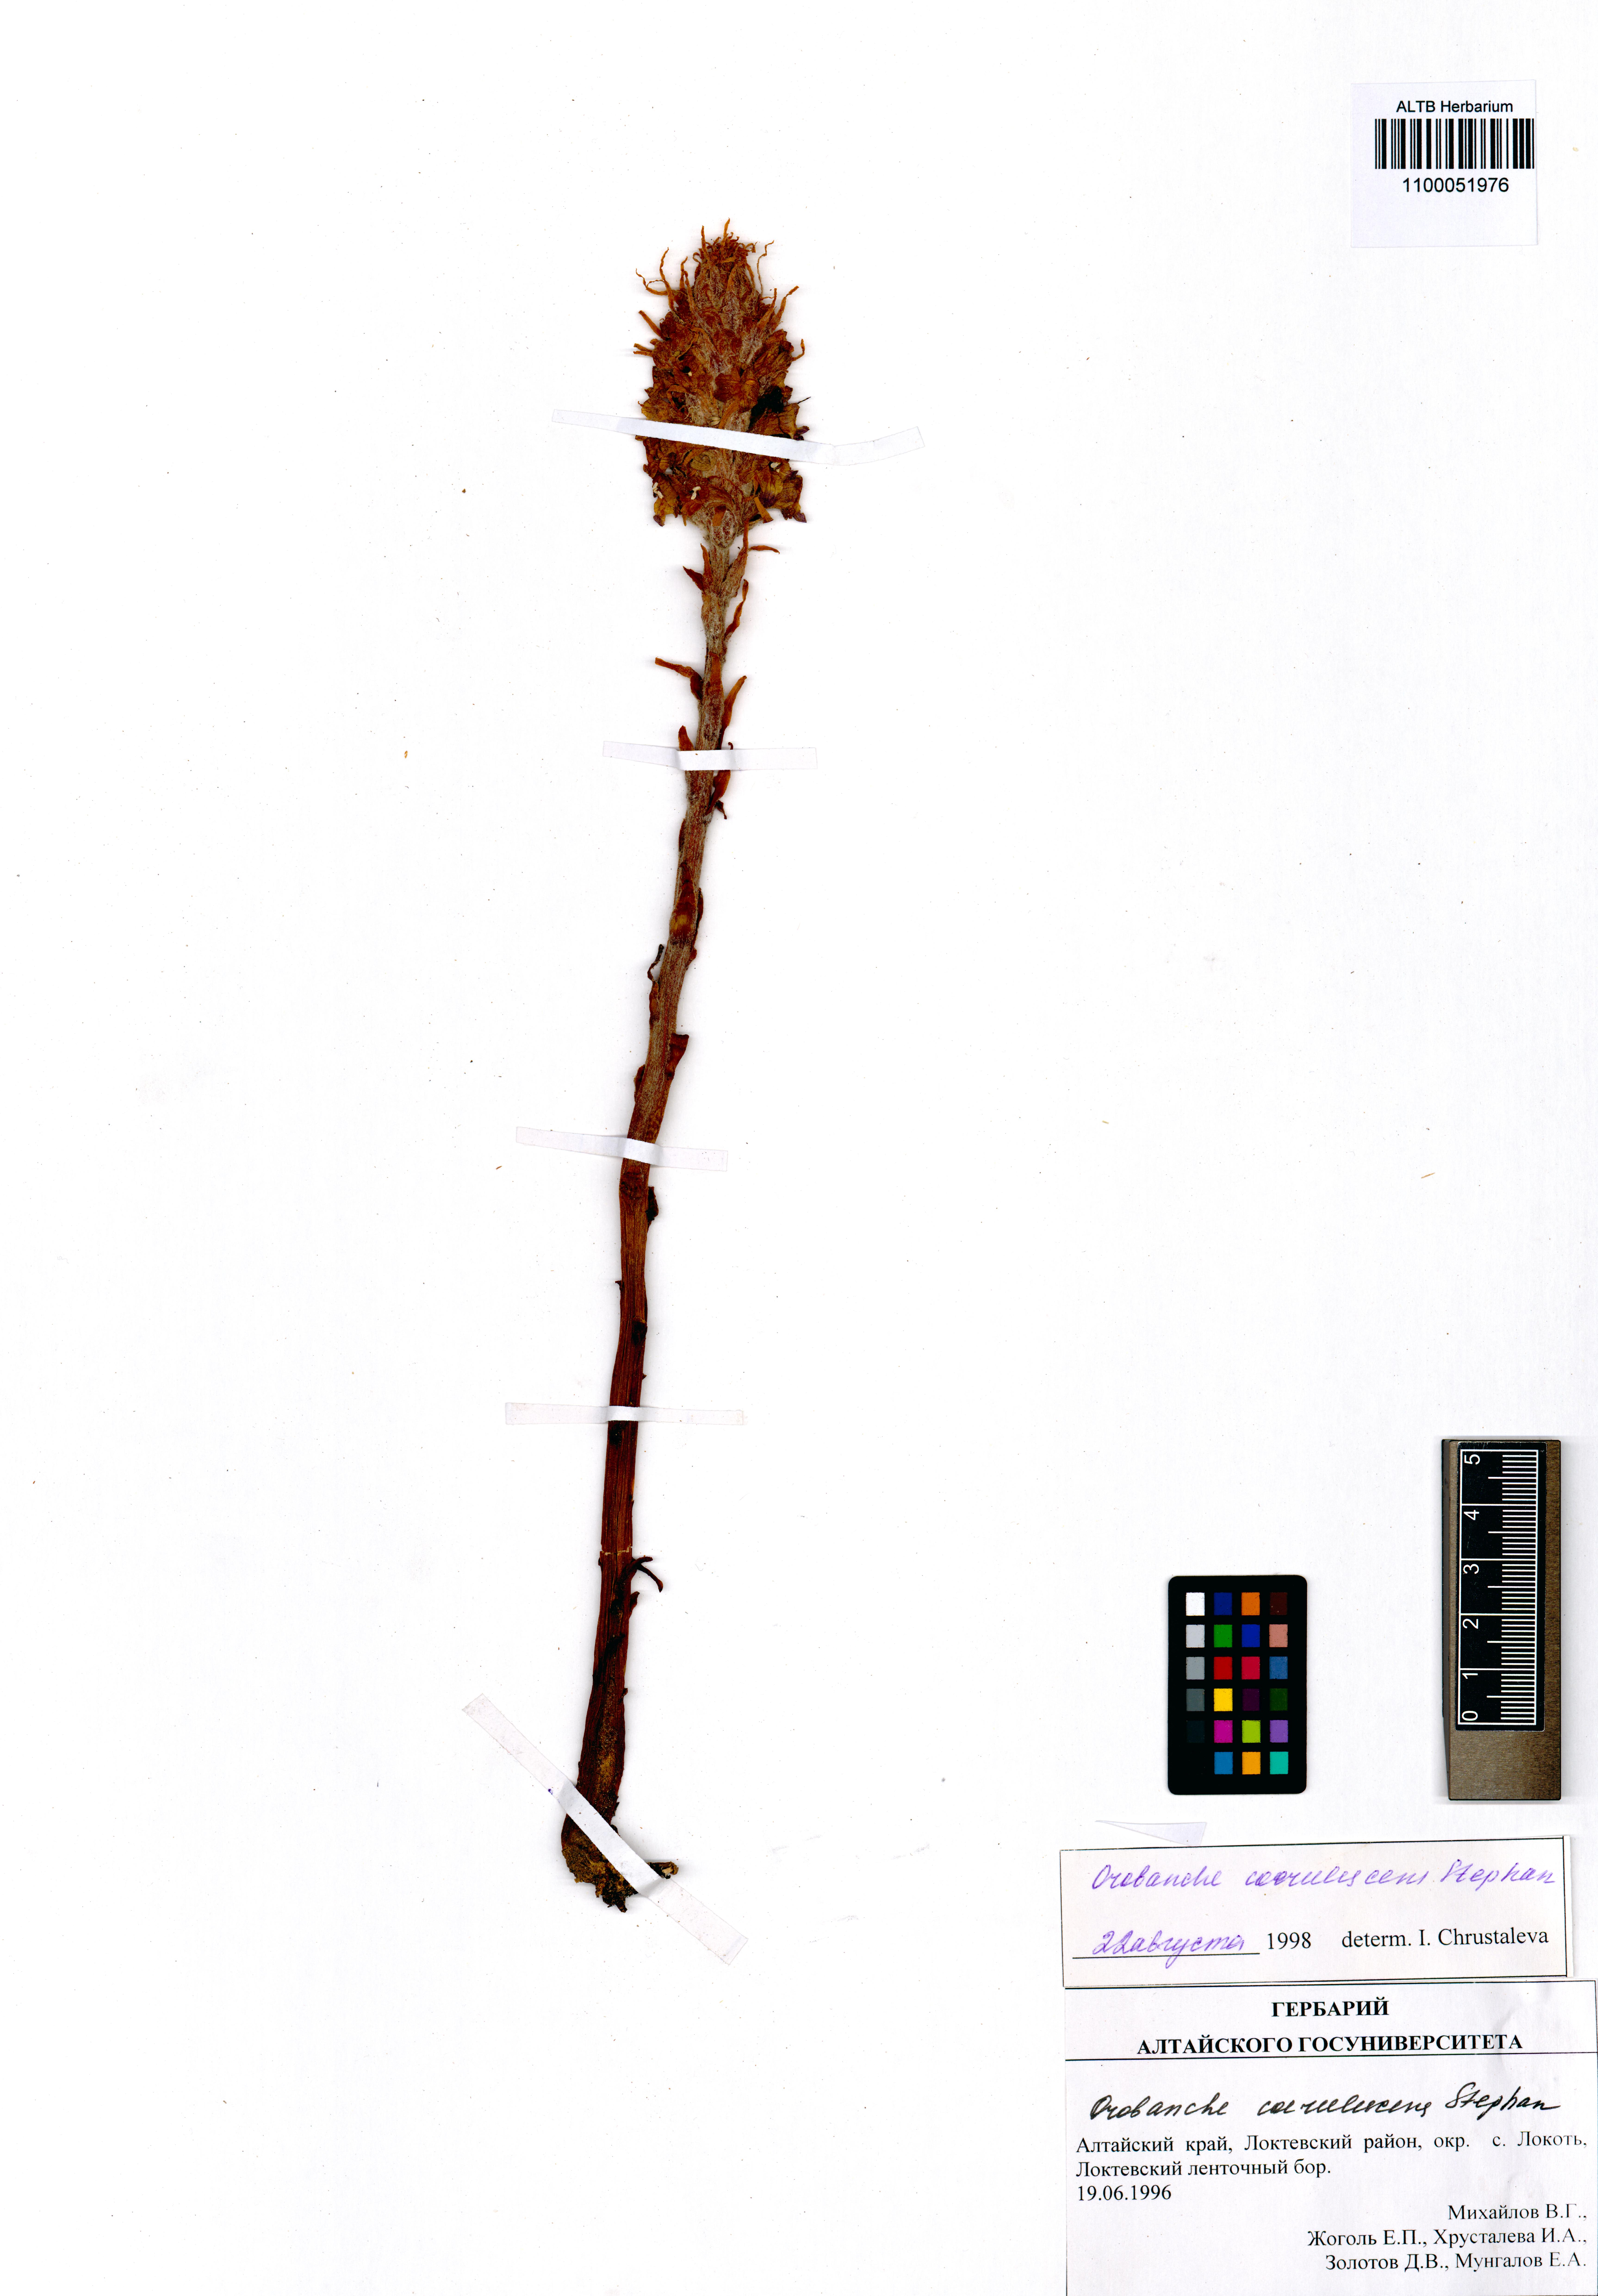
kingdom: Plantae
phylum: Tracheophyta
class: Magnoliopsida
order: Lamiales
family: Orobanchaceae
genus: Orobanche
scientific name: Orobanche coerulescens
